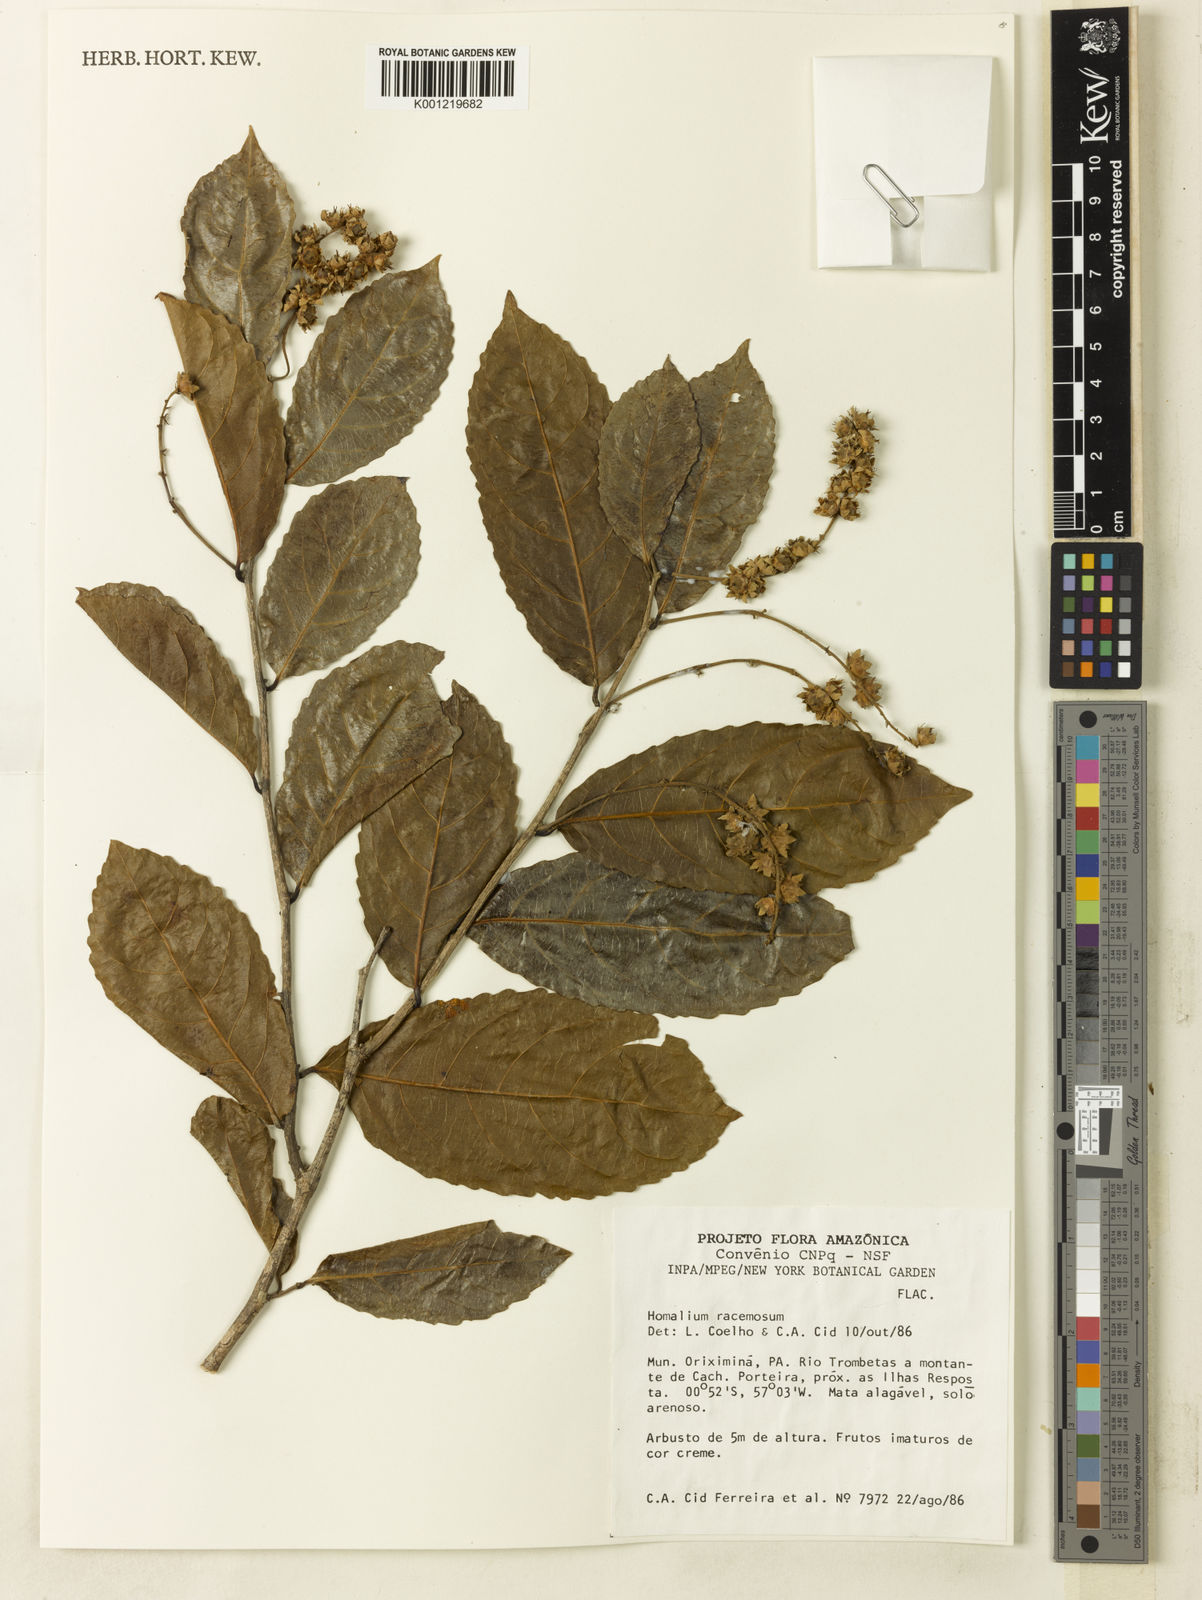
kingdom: Plantae
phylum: Tracheophyta
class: Magnoliopsida
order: Malpighiales
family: Salicaceae
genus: Homalium
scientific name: Homalium racemosum
